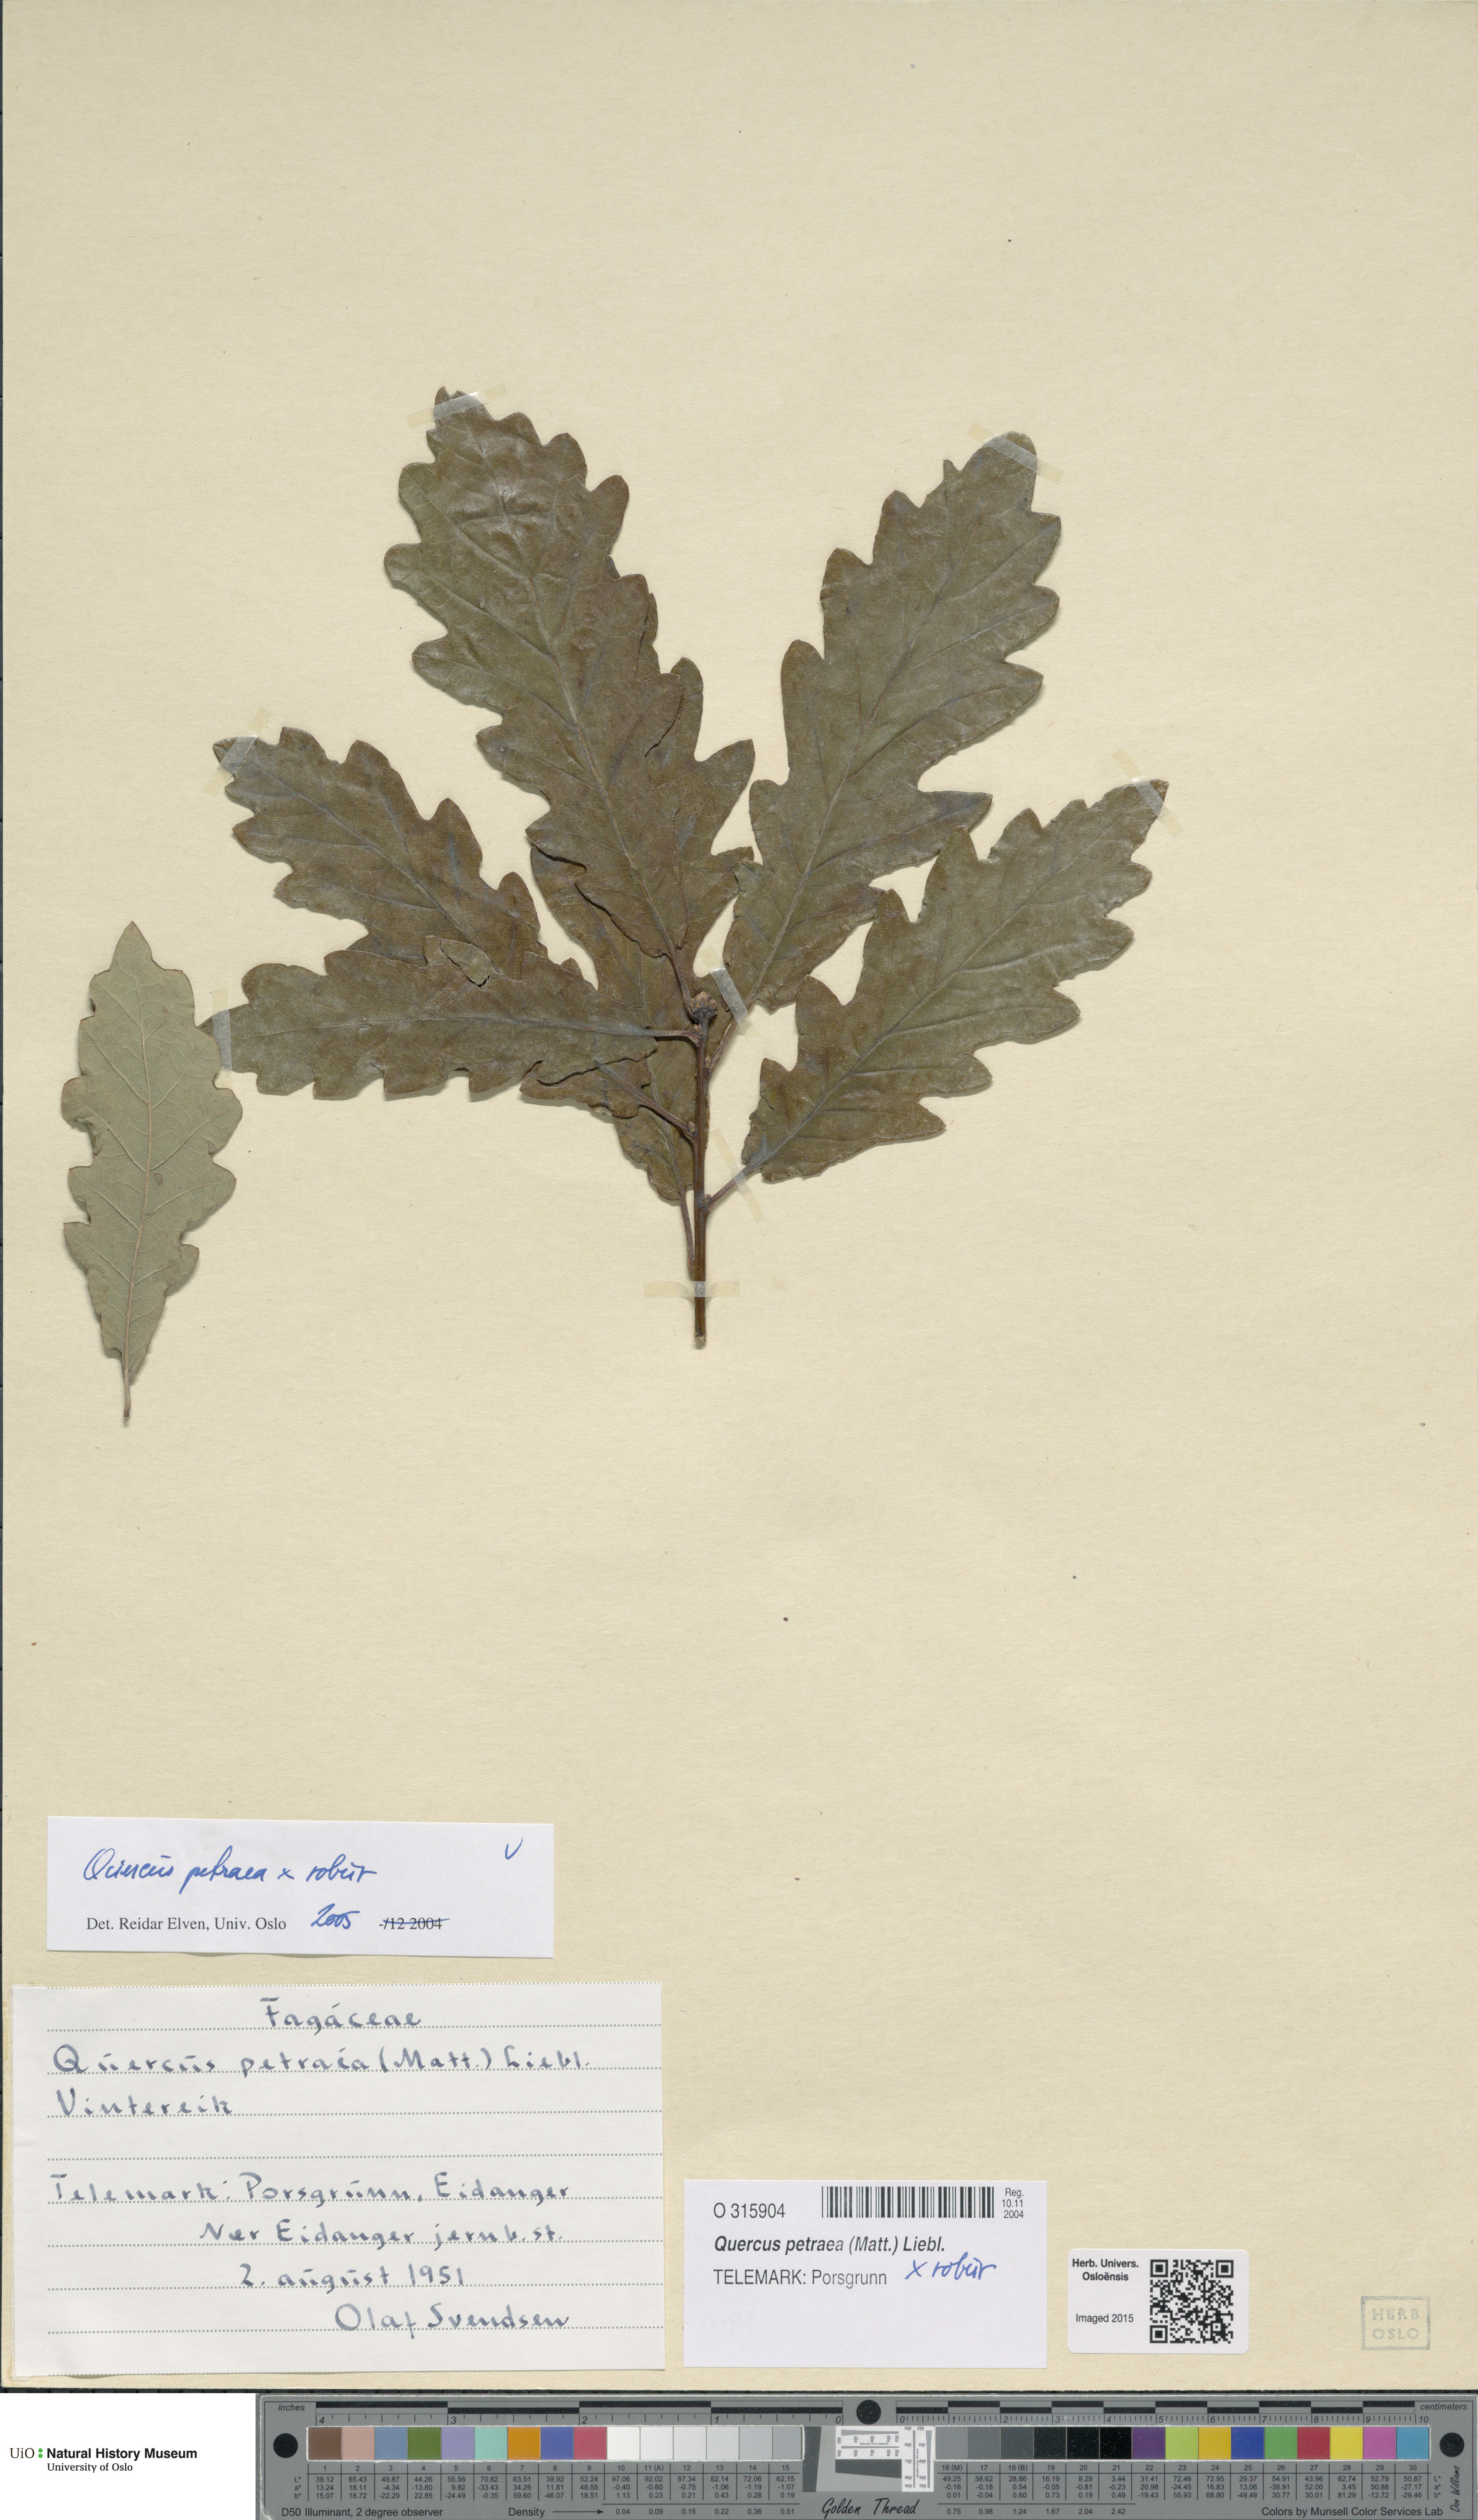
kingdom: Plantae
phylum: Tracheophyta
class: Magnoliopsida
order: Fagales
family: Fagaceae
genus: Quercus
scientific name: Quercus
